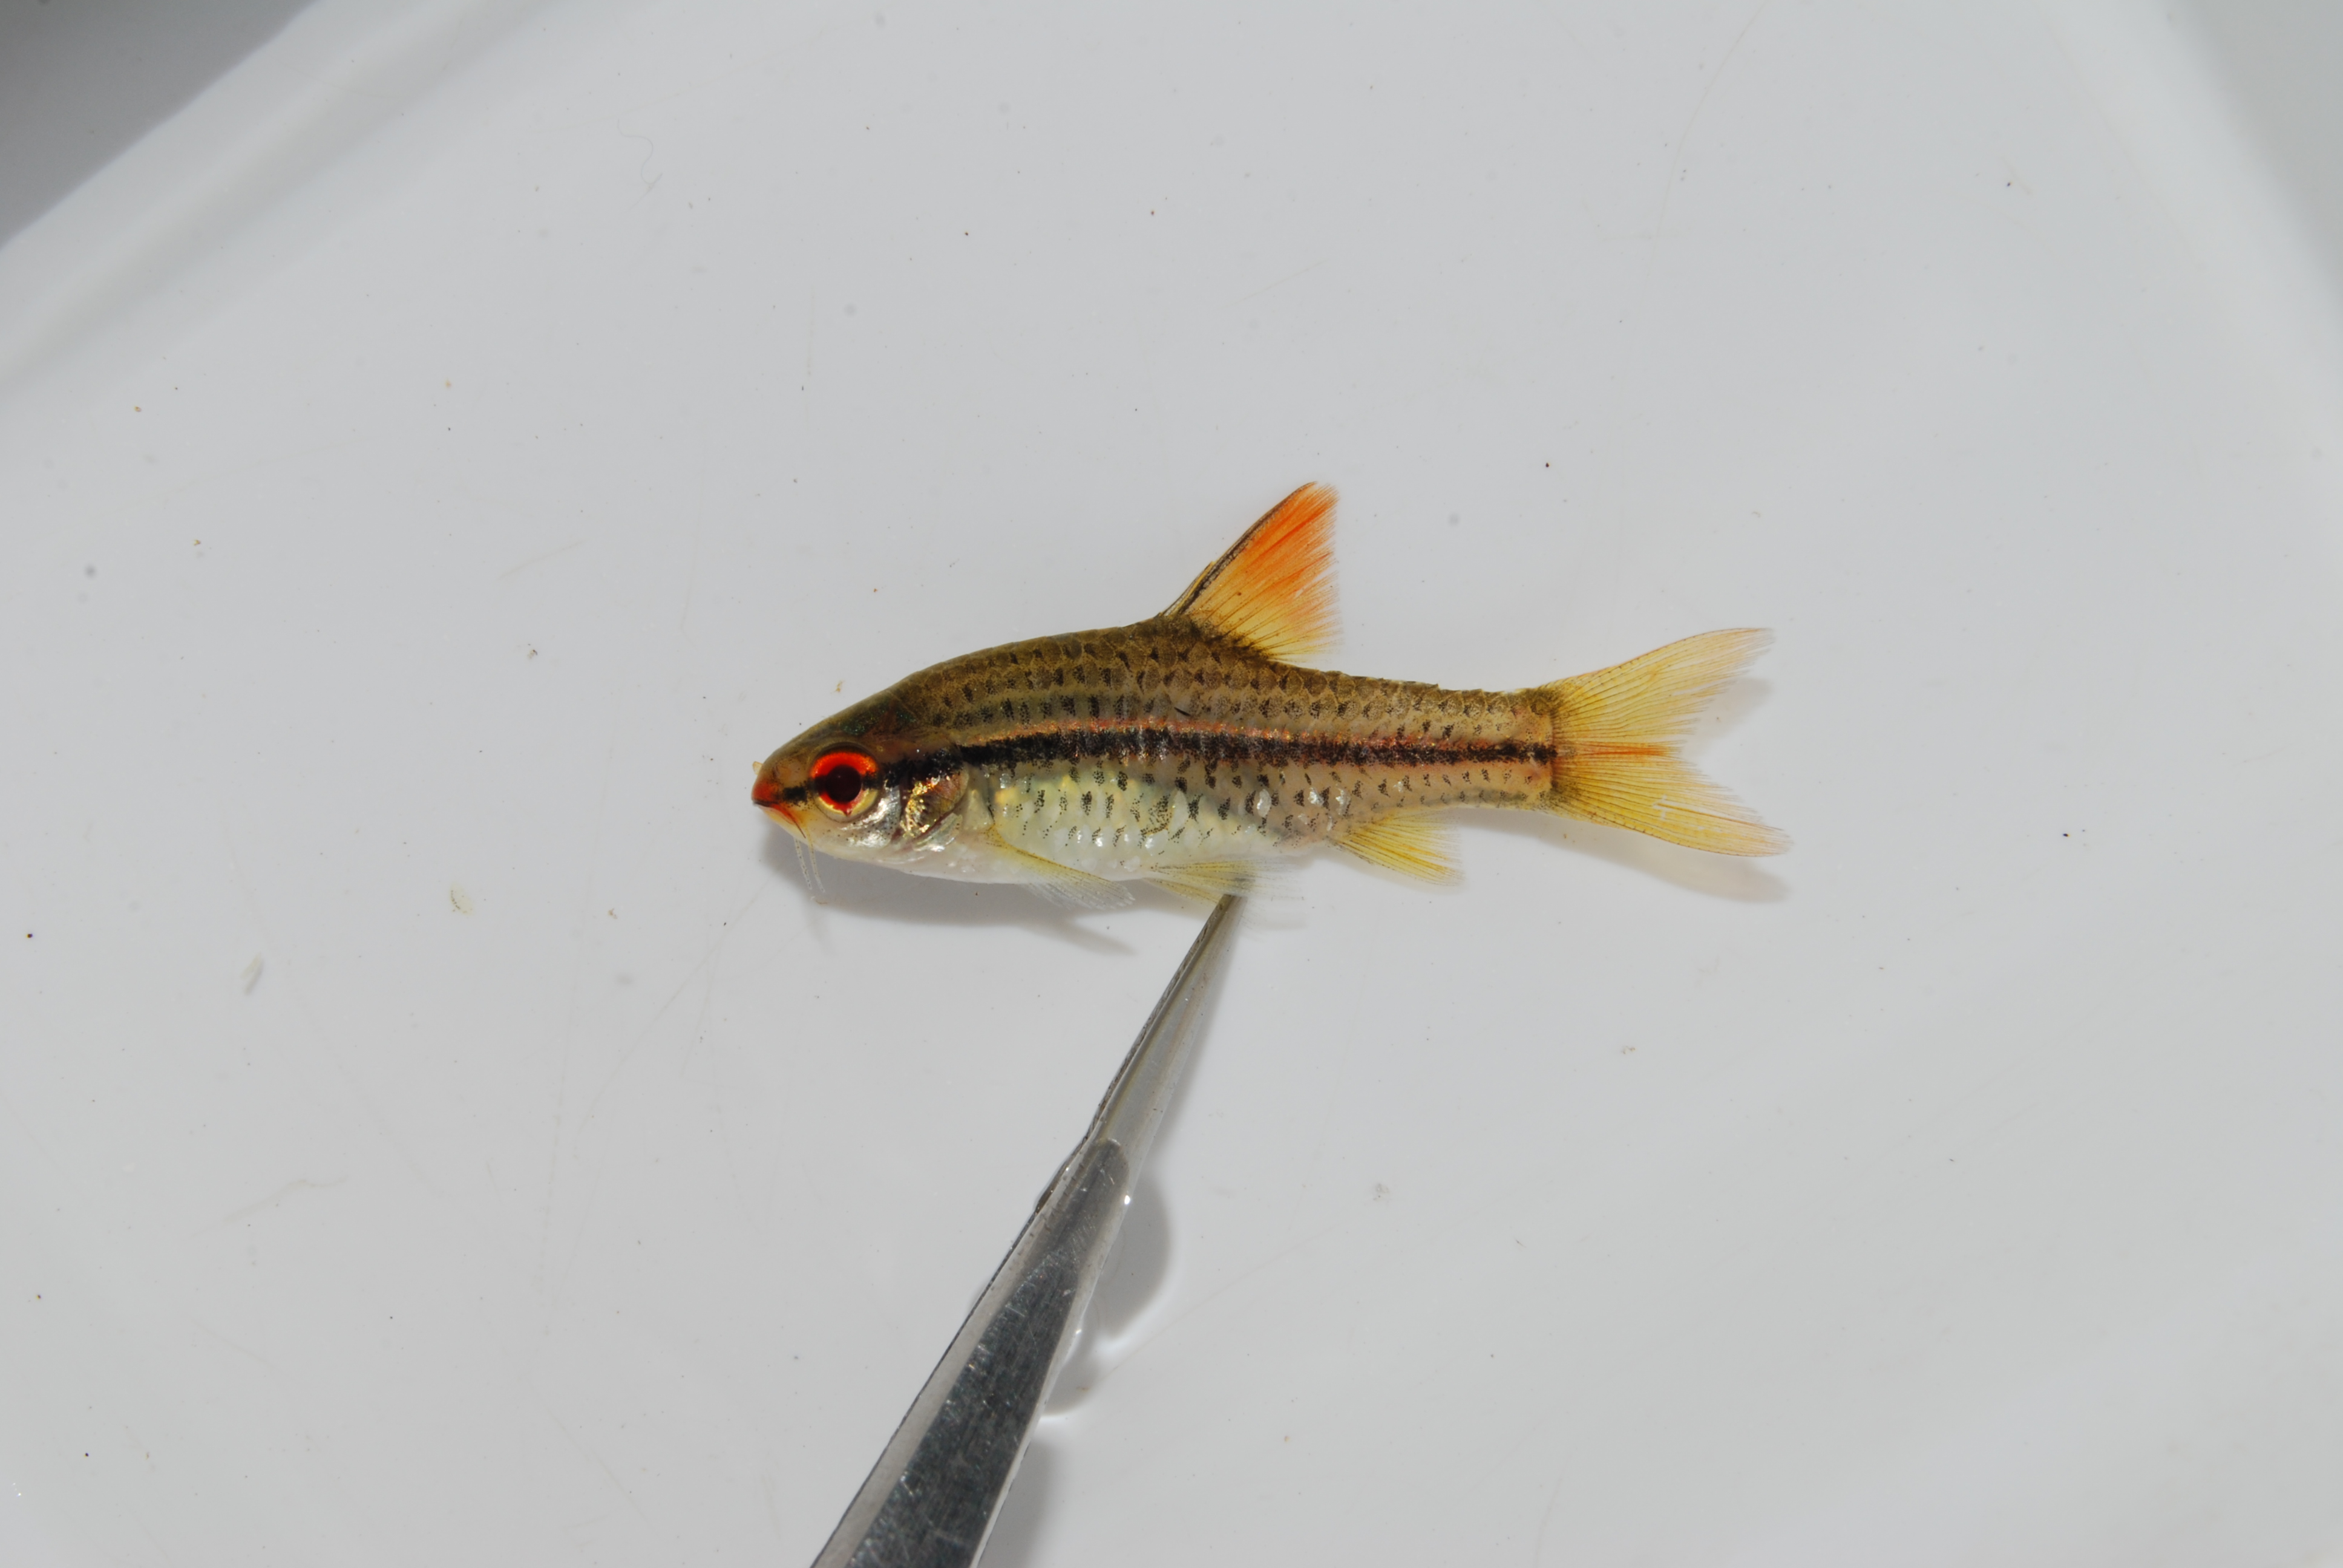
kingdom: Animalia
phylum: Chordata
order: Cypriniformes
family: Cyprinidae
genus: Enteromius
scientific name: Enteromius multilineatus
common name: Copperstripe barb
